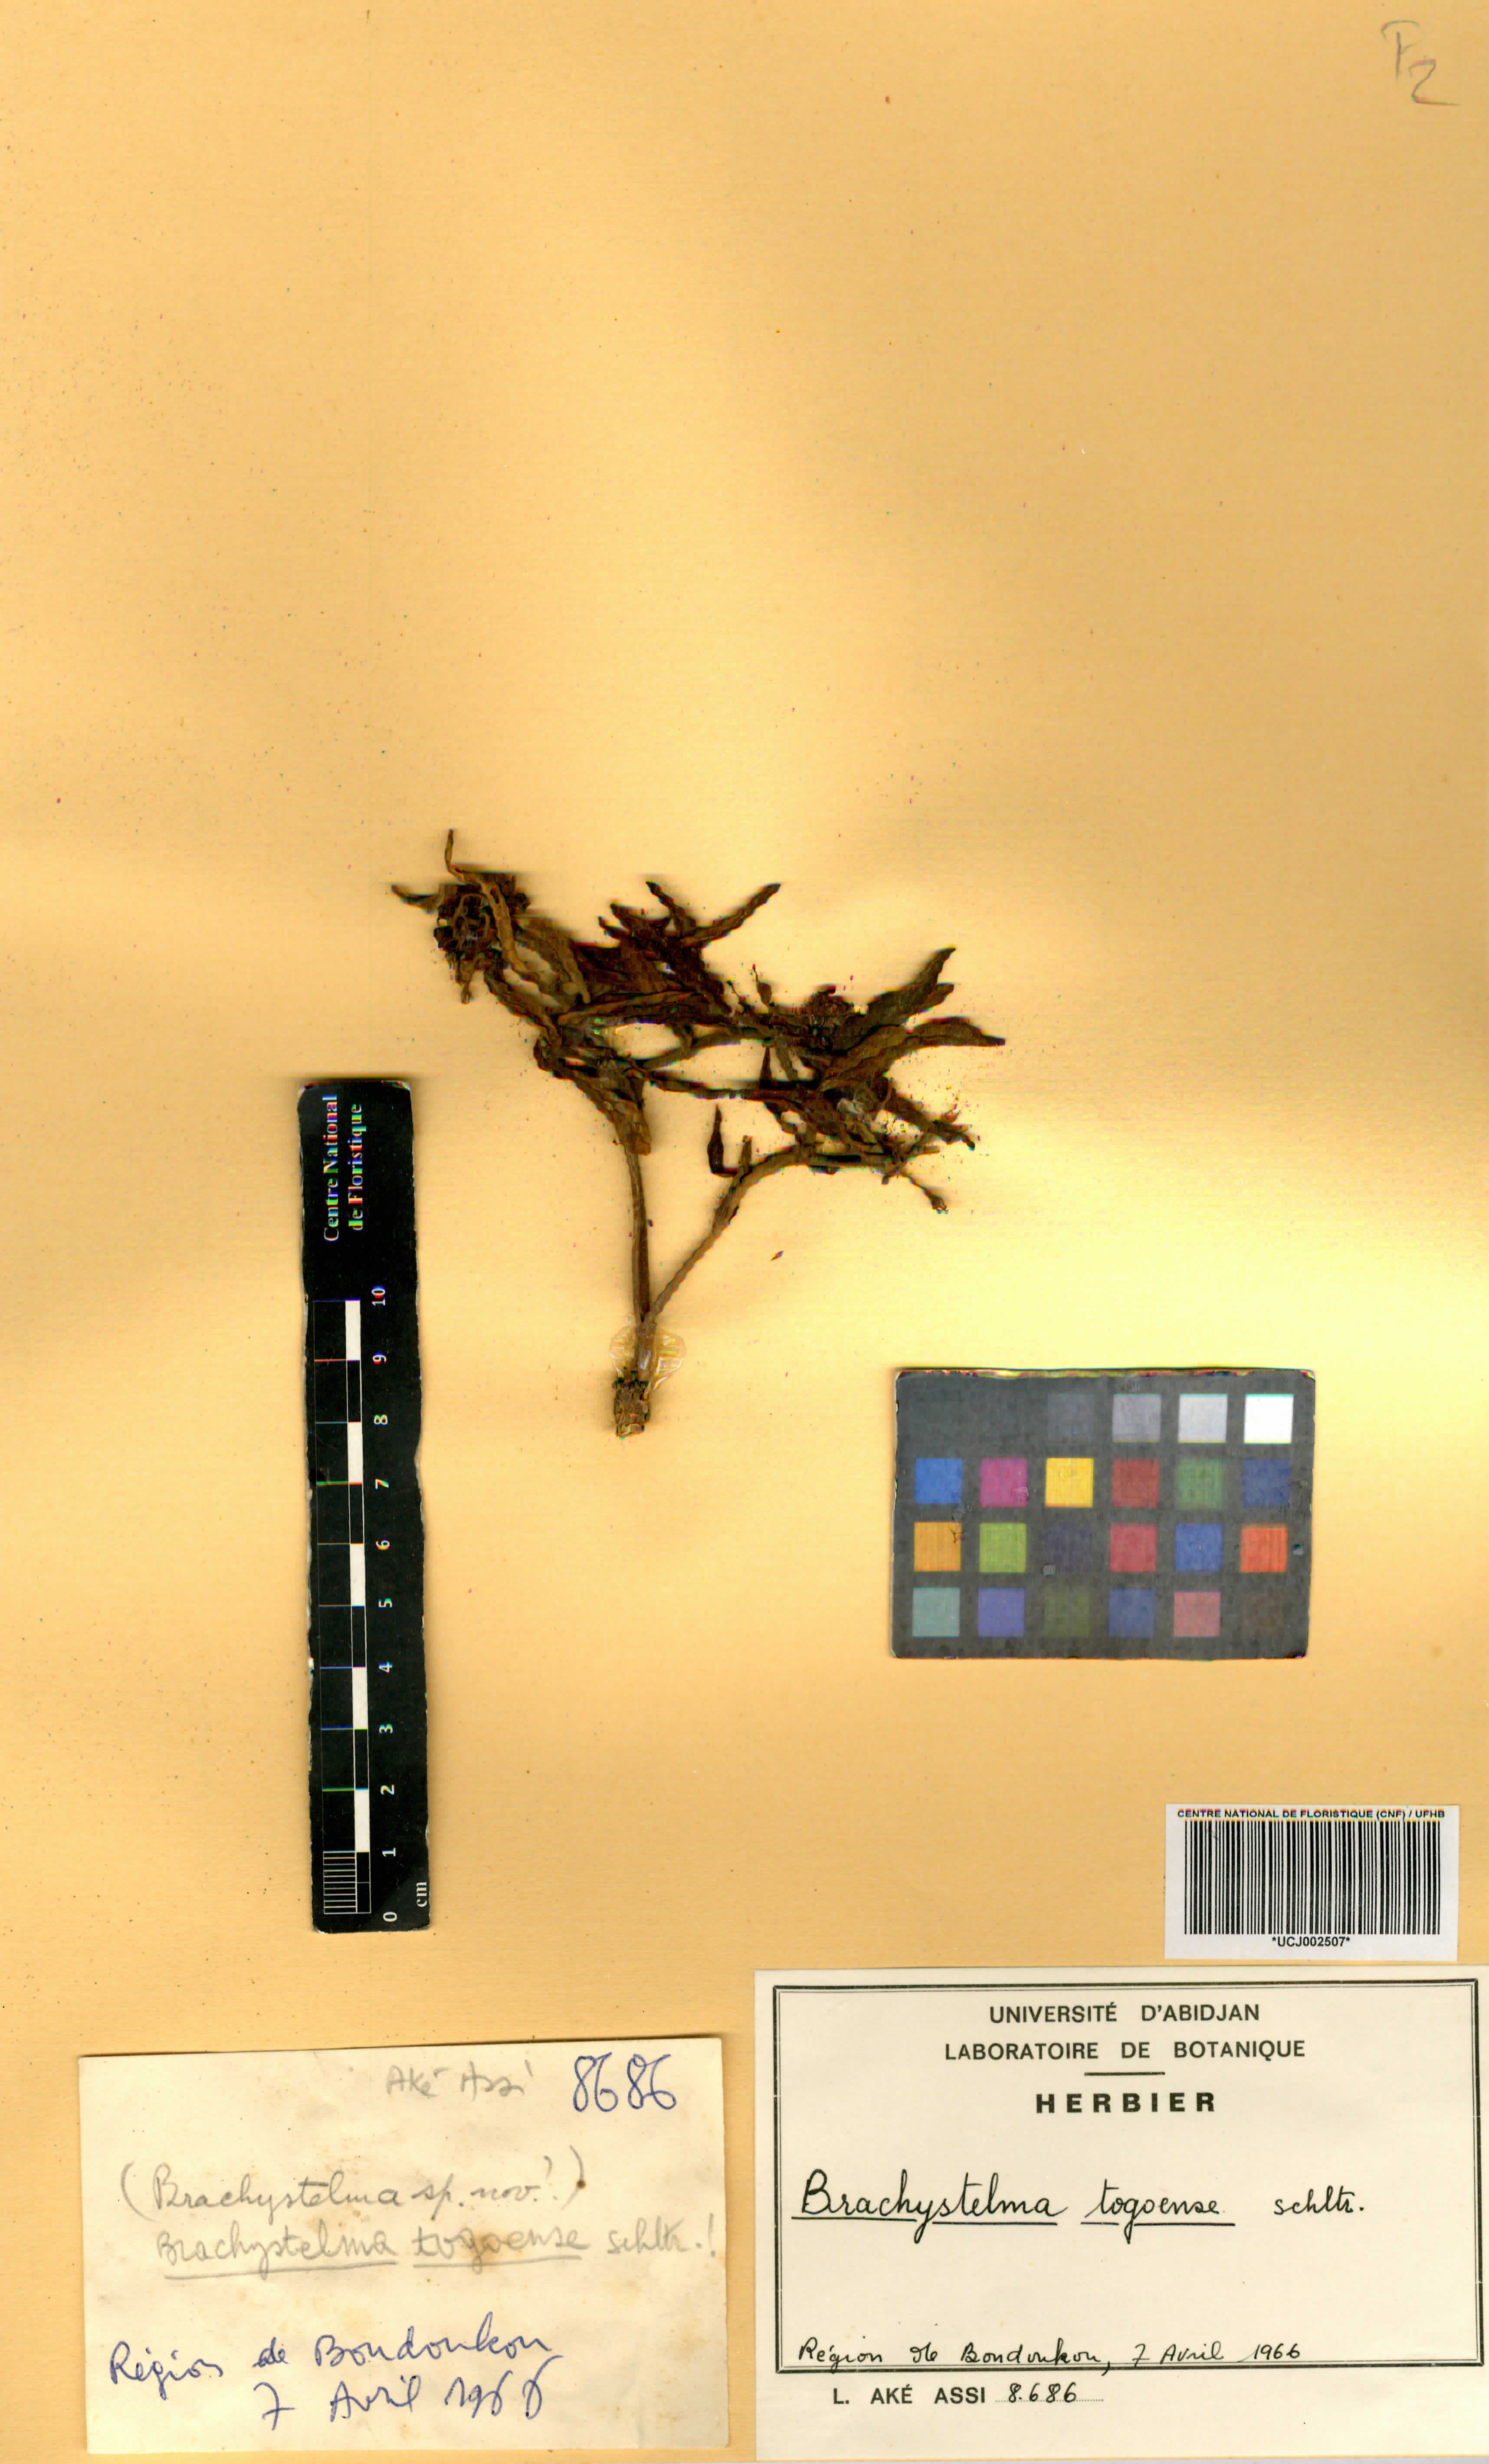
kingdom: Plantae
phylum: Tracheophyta
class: Magnoliopsida
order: Gentianales
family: Apocynaceae
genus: Ceropegia
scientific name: Ceropegia togoensis
